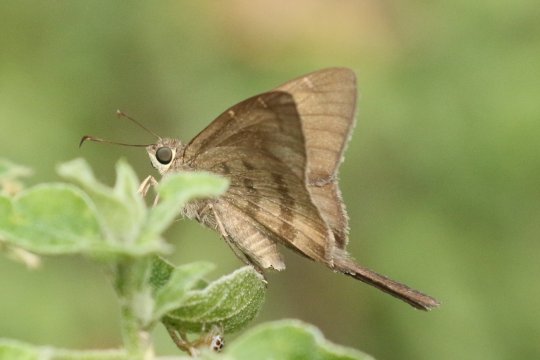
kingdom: Animalia
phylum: Arthropoda
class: Insecta
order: Lepidoptera
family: Hesperiidae
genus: Urbanus
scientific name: Urbanus procne
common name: Brown Longtail
